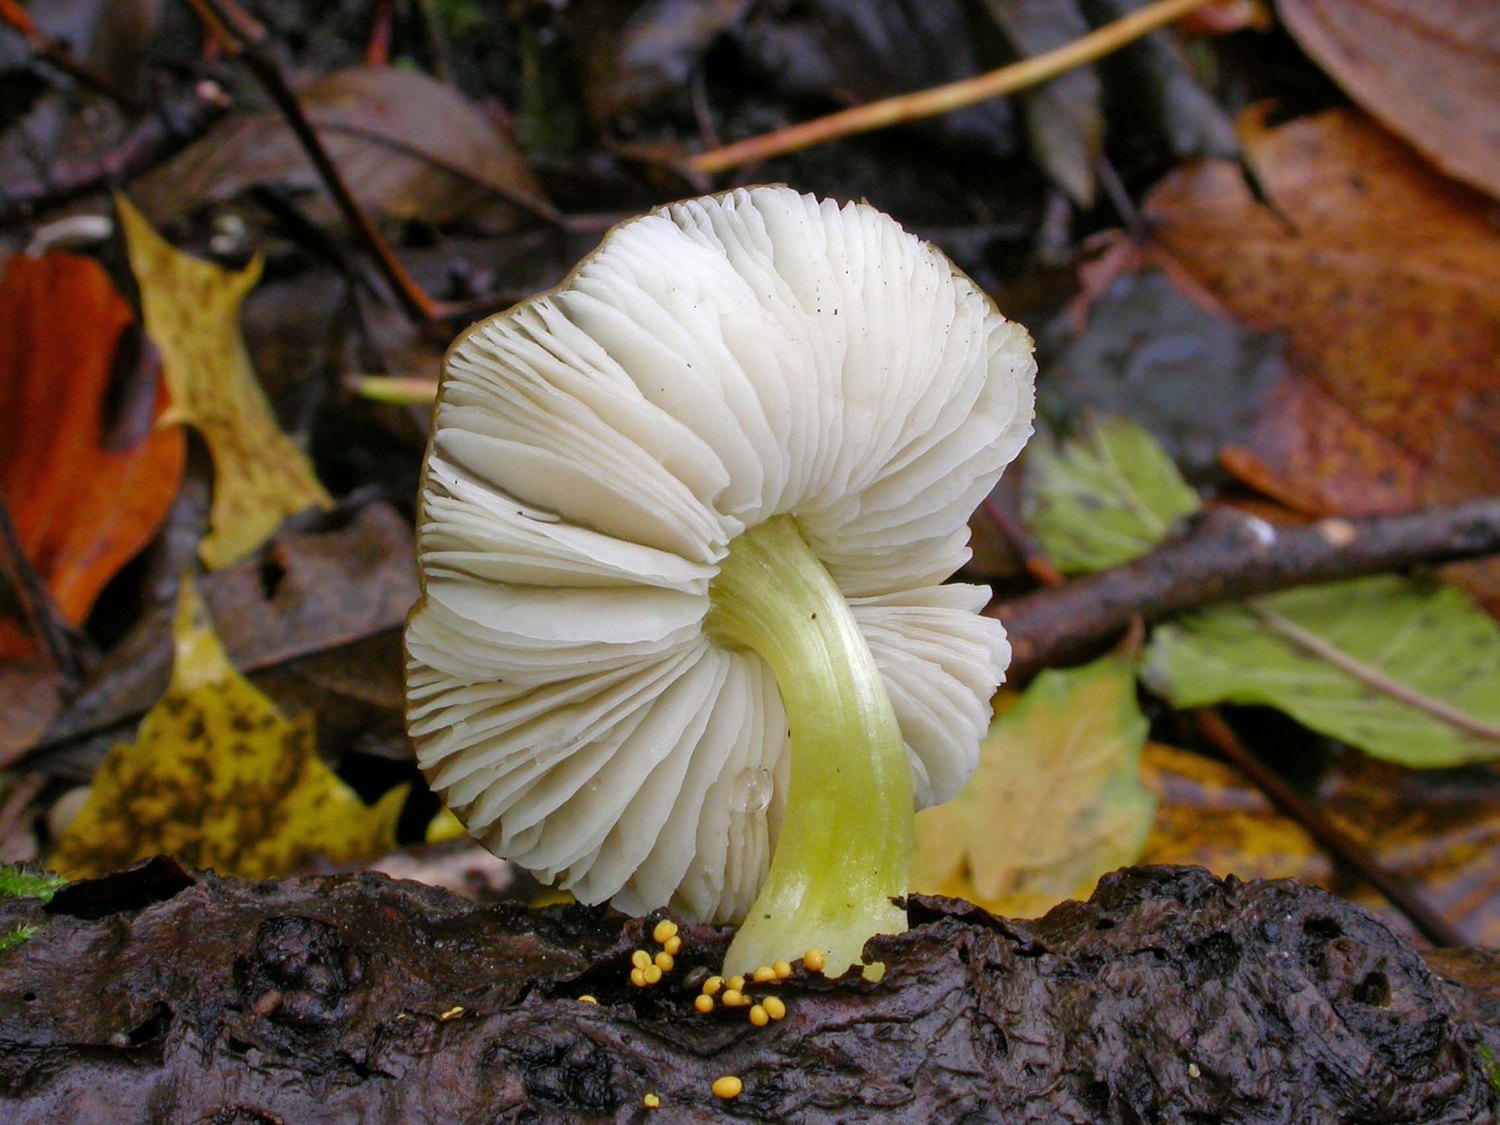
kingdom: Fungi
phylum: Basidiomycota
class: Agaricomycetes
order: Agaricales
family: Pluteaceae
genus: Pluteus
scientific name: Pluteus romellii
